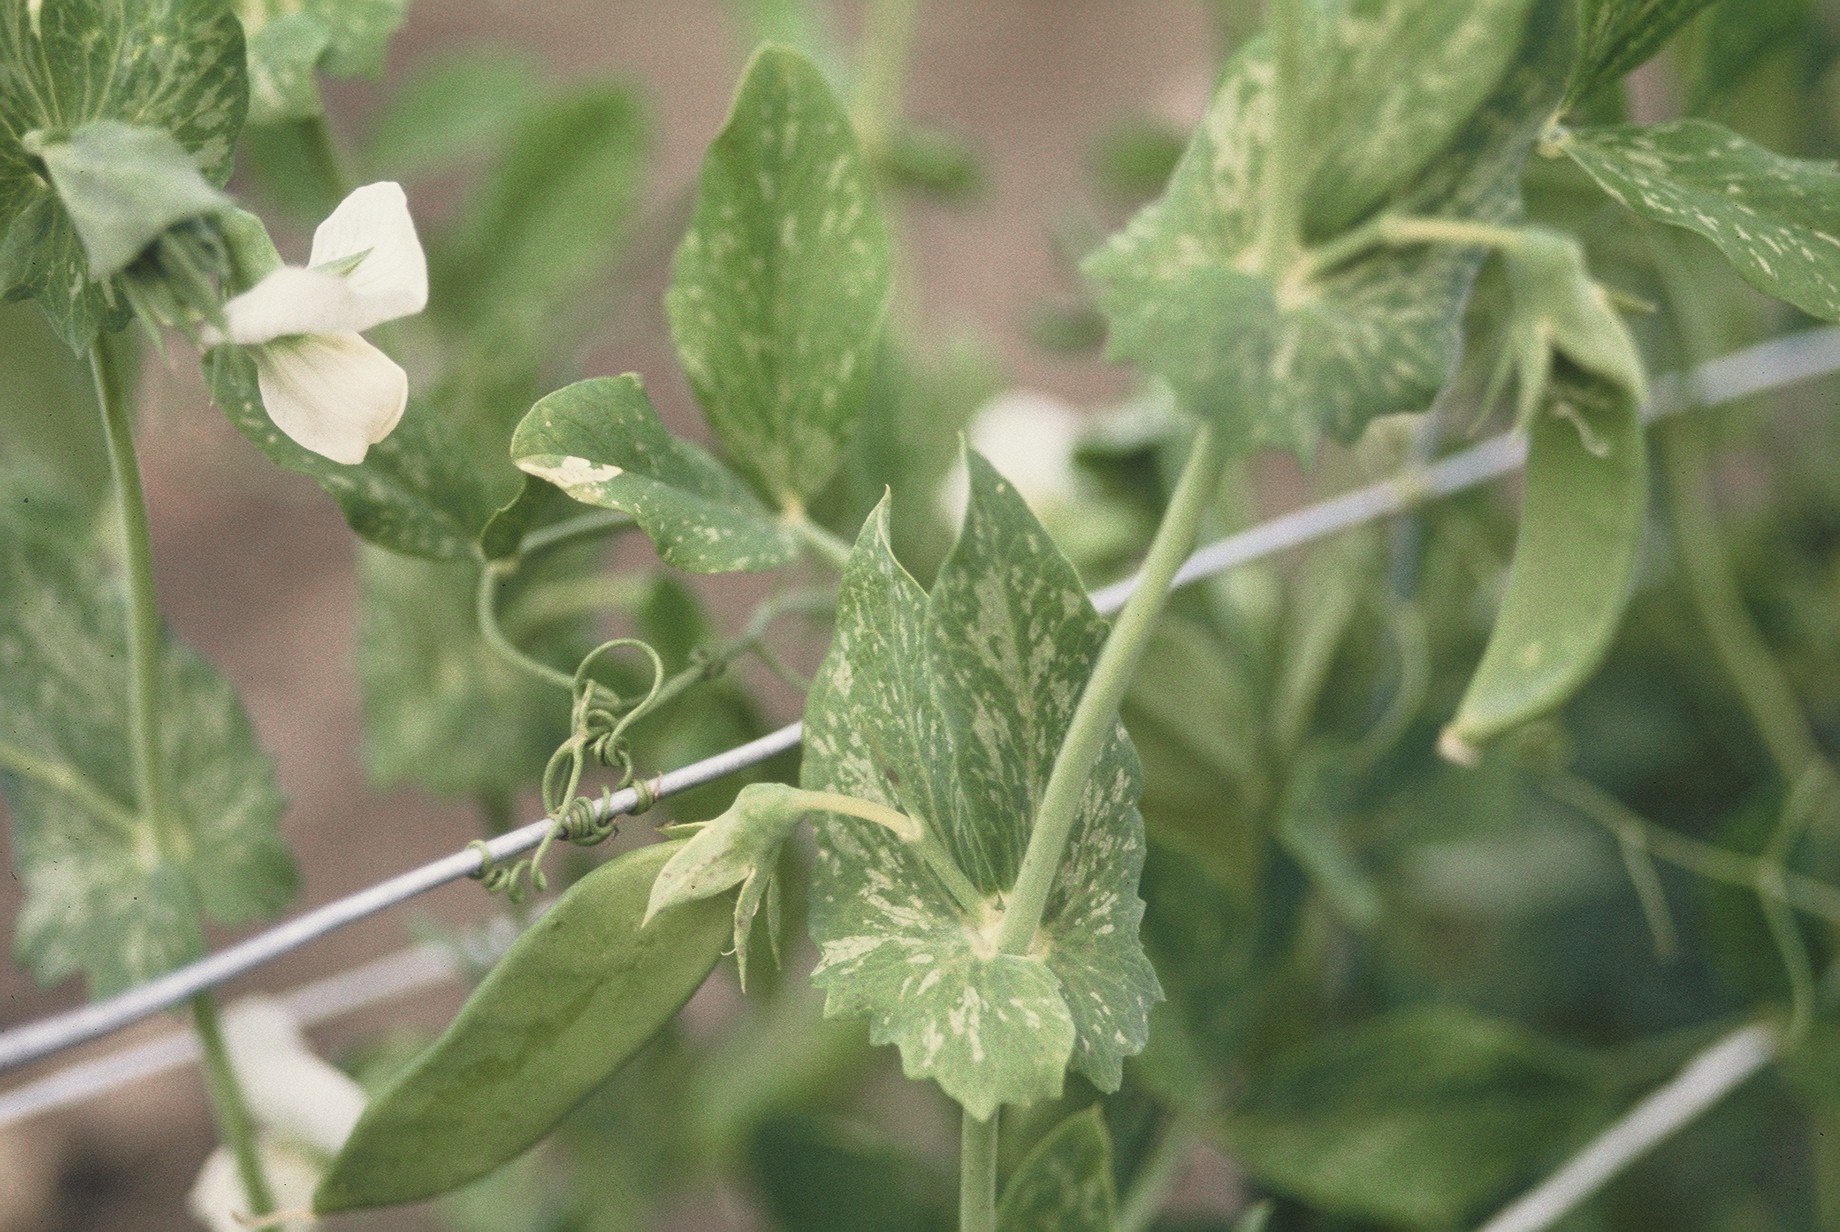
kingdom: Plantae
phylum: Tracheophyta
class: Magnoliopsida
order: Fabales
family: Fabaceae
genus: Lathyrus
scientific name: Lathyrus oleraceus
